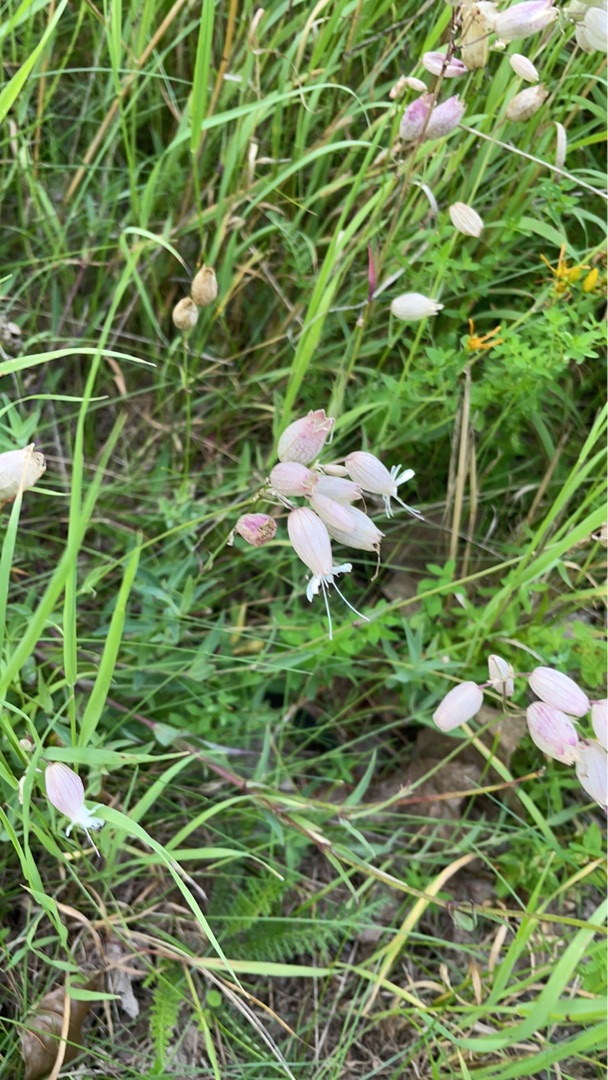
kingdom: Plantae
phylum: Tracheophyta
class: Magnoliopsida
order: Caryophyllales
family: Caryophyllaceae
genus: Silene
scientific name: Silene vulgaris
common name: Blæresmælde
